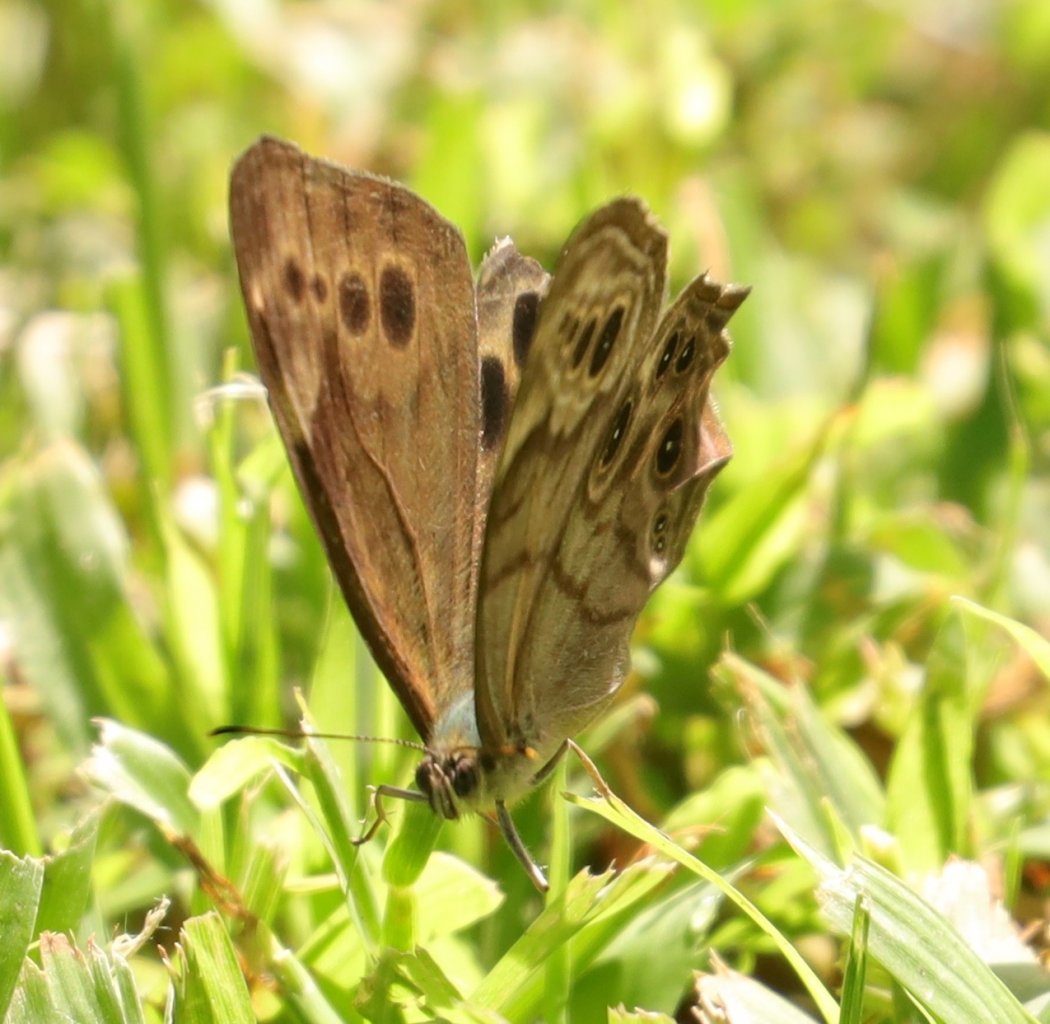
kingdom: Animalia
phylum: Arthropoda
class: Insecta
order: Lepidoptera
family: Nymphalidae
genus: Lethe
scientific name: Lethe anthedon
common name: Northern Pearly-Eye
